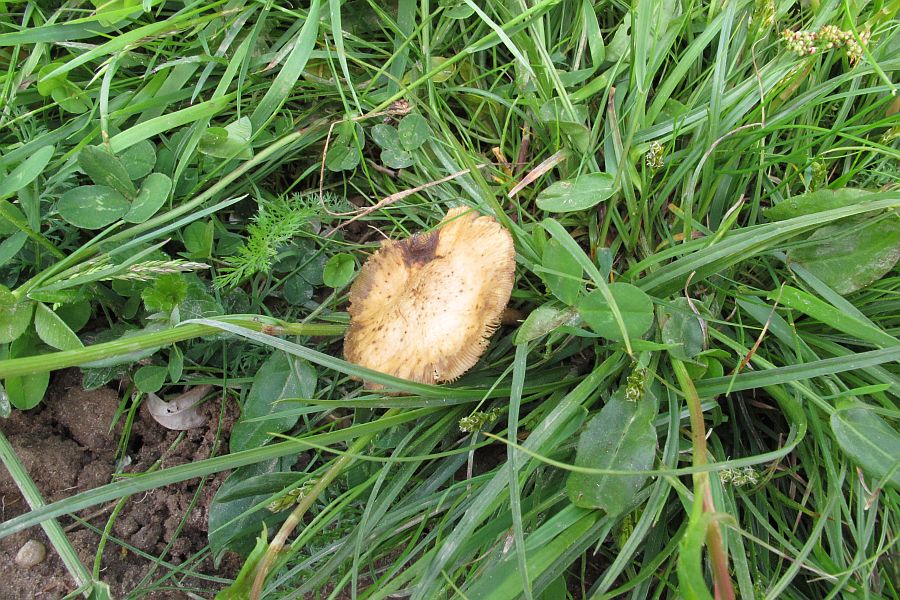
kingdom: Fungi
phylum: Basidiomycota
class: Agaricomycetes
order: Agaricales
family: Strophariaceae
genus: Agrocybe
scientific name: Agrocybe praecox
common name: tidlig agerhat
